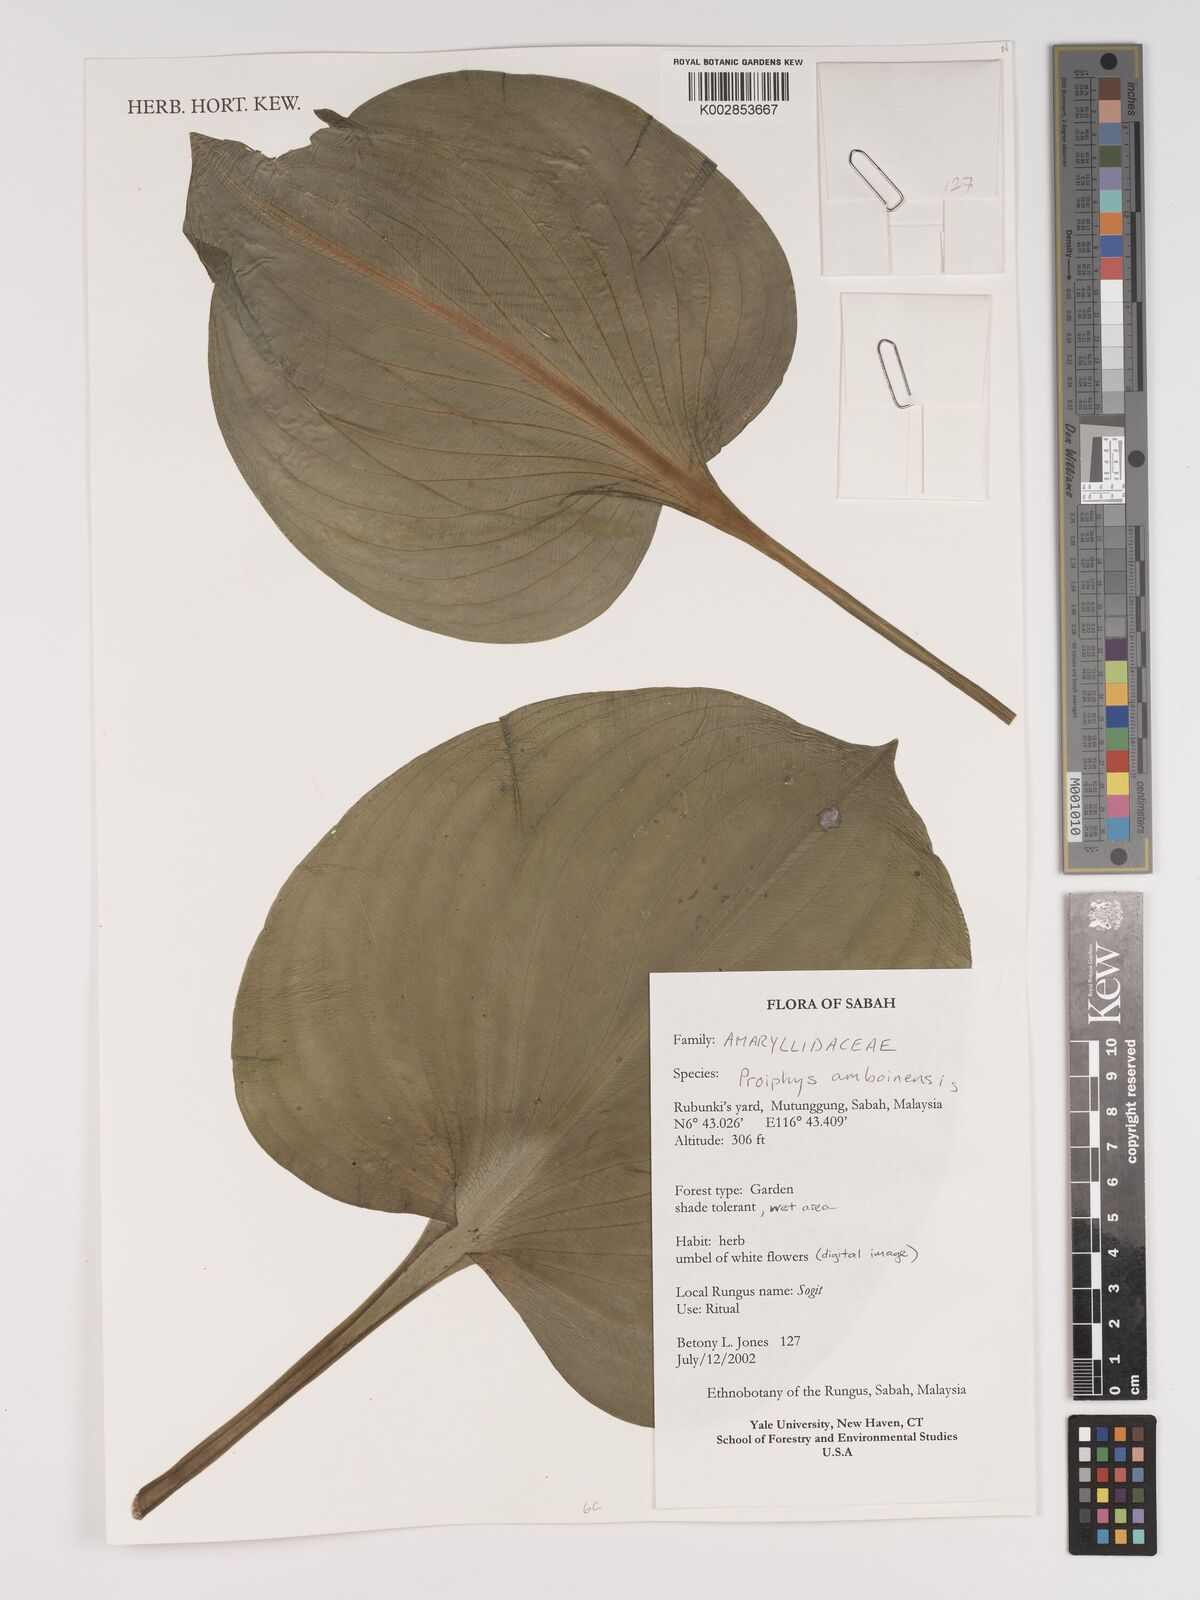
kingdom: Plantae
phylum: Tracheophyta
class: Liliopsida
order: Asparagales
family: Amaryllidaceae
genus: Proiphys
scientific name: Proiphys amboinensis
